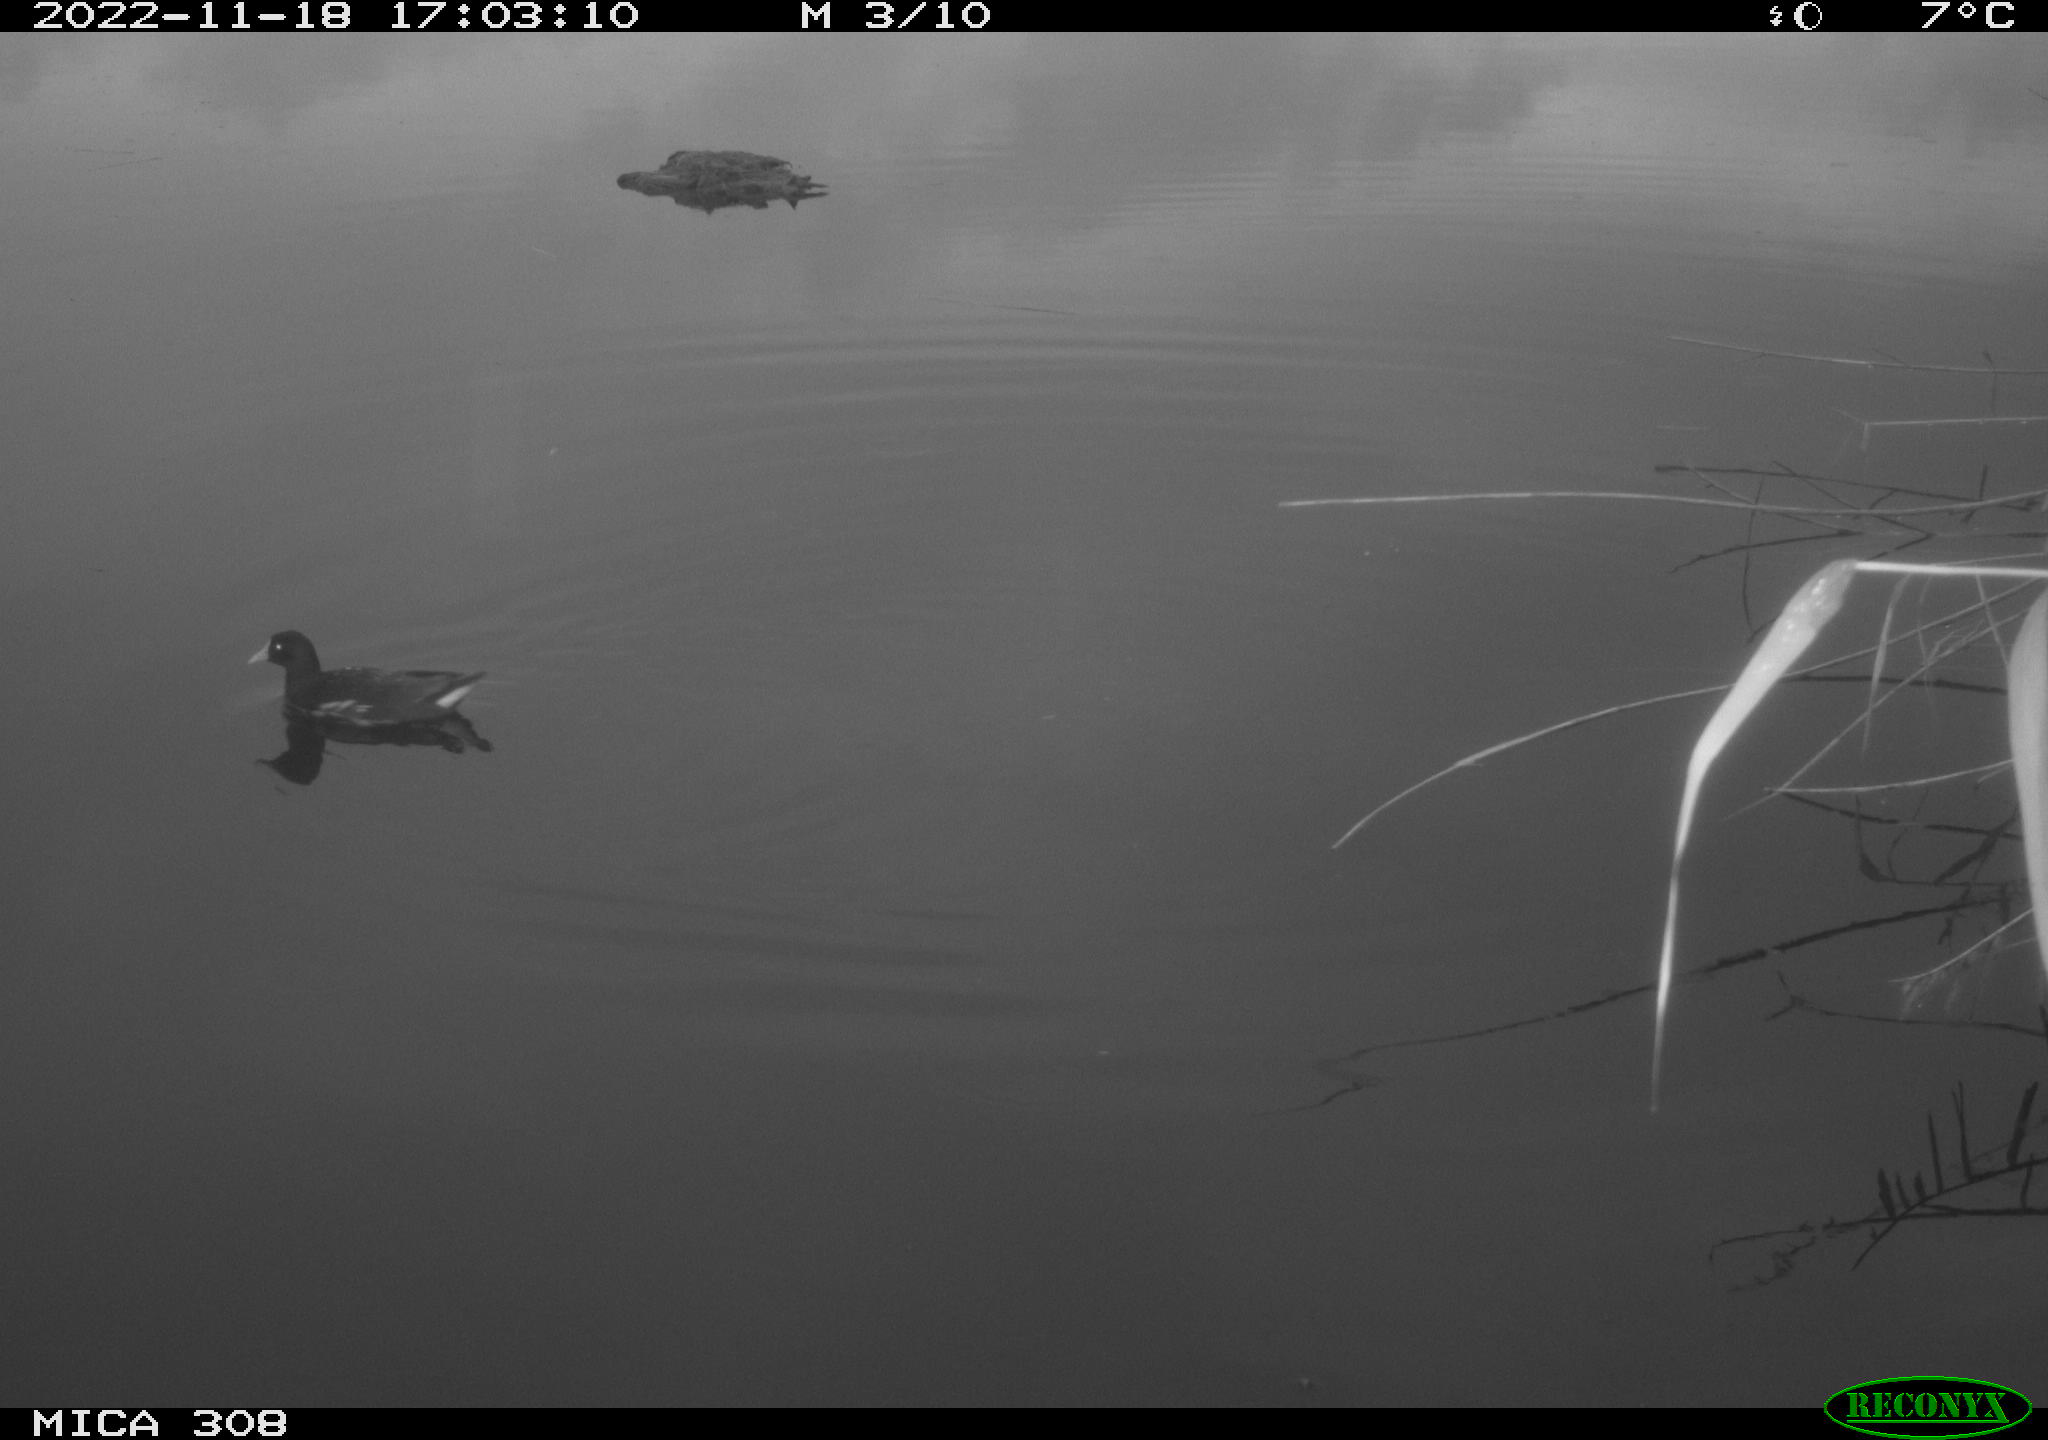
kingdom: Animalia
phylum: Chordata
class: Aves
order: Gruiformes
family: Rallidae
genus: Gallinula
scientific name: Gallinula chloropus
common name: Common moorhen
